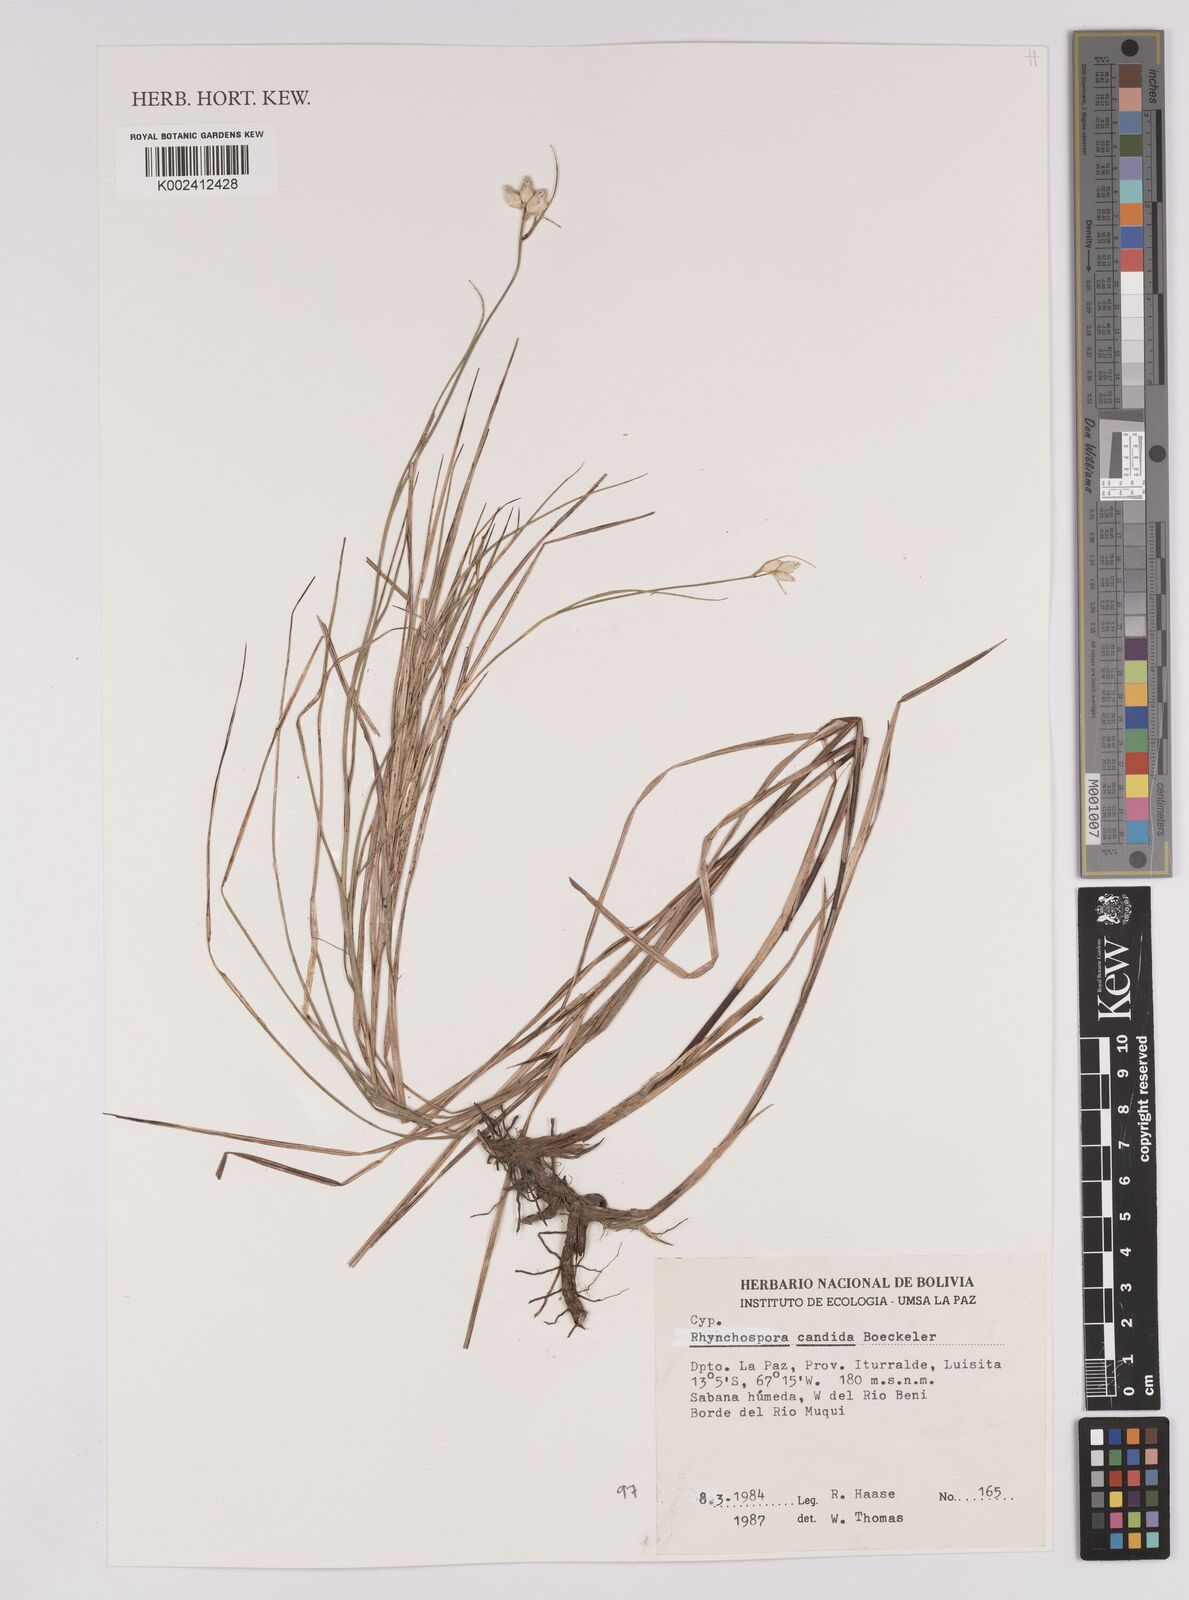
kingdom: Plantae
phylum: Tracheophyta
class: Liliopsida
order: Poales
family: Cyperaceae
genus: Rhynchospora
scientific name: Rhynchospora candida
